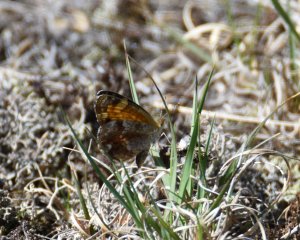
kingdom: Animalia
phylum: Arthropoda
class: Insecta
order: Lepidoptera
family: Nymphalidae
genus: Phyciodes
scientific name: Phyciodes tharos
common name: Northern Crescent
